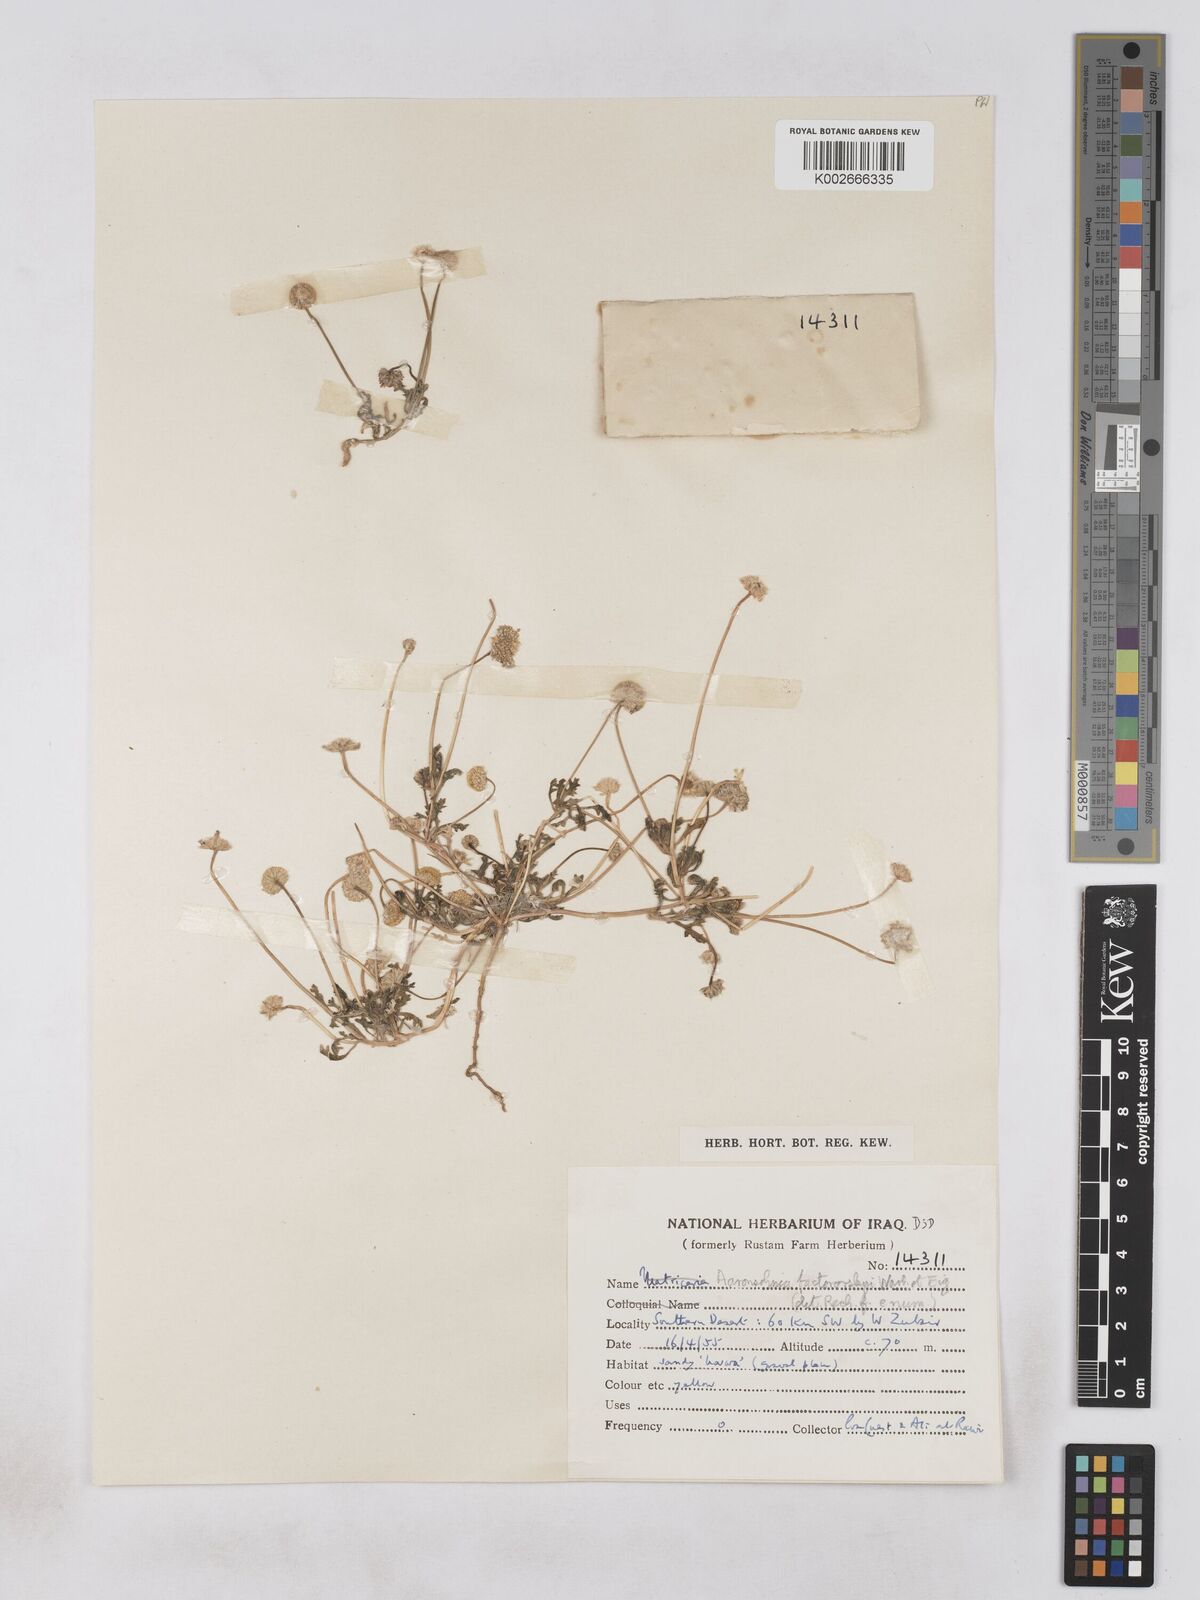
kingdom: Plantae
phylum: Tracheophyta
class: Magnoliopsida
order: Asterales
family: Asteraceae
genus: Otoglyphis
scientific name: Otoglyphis factorovskyi
